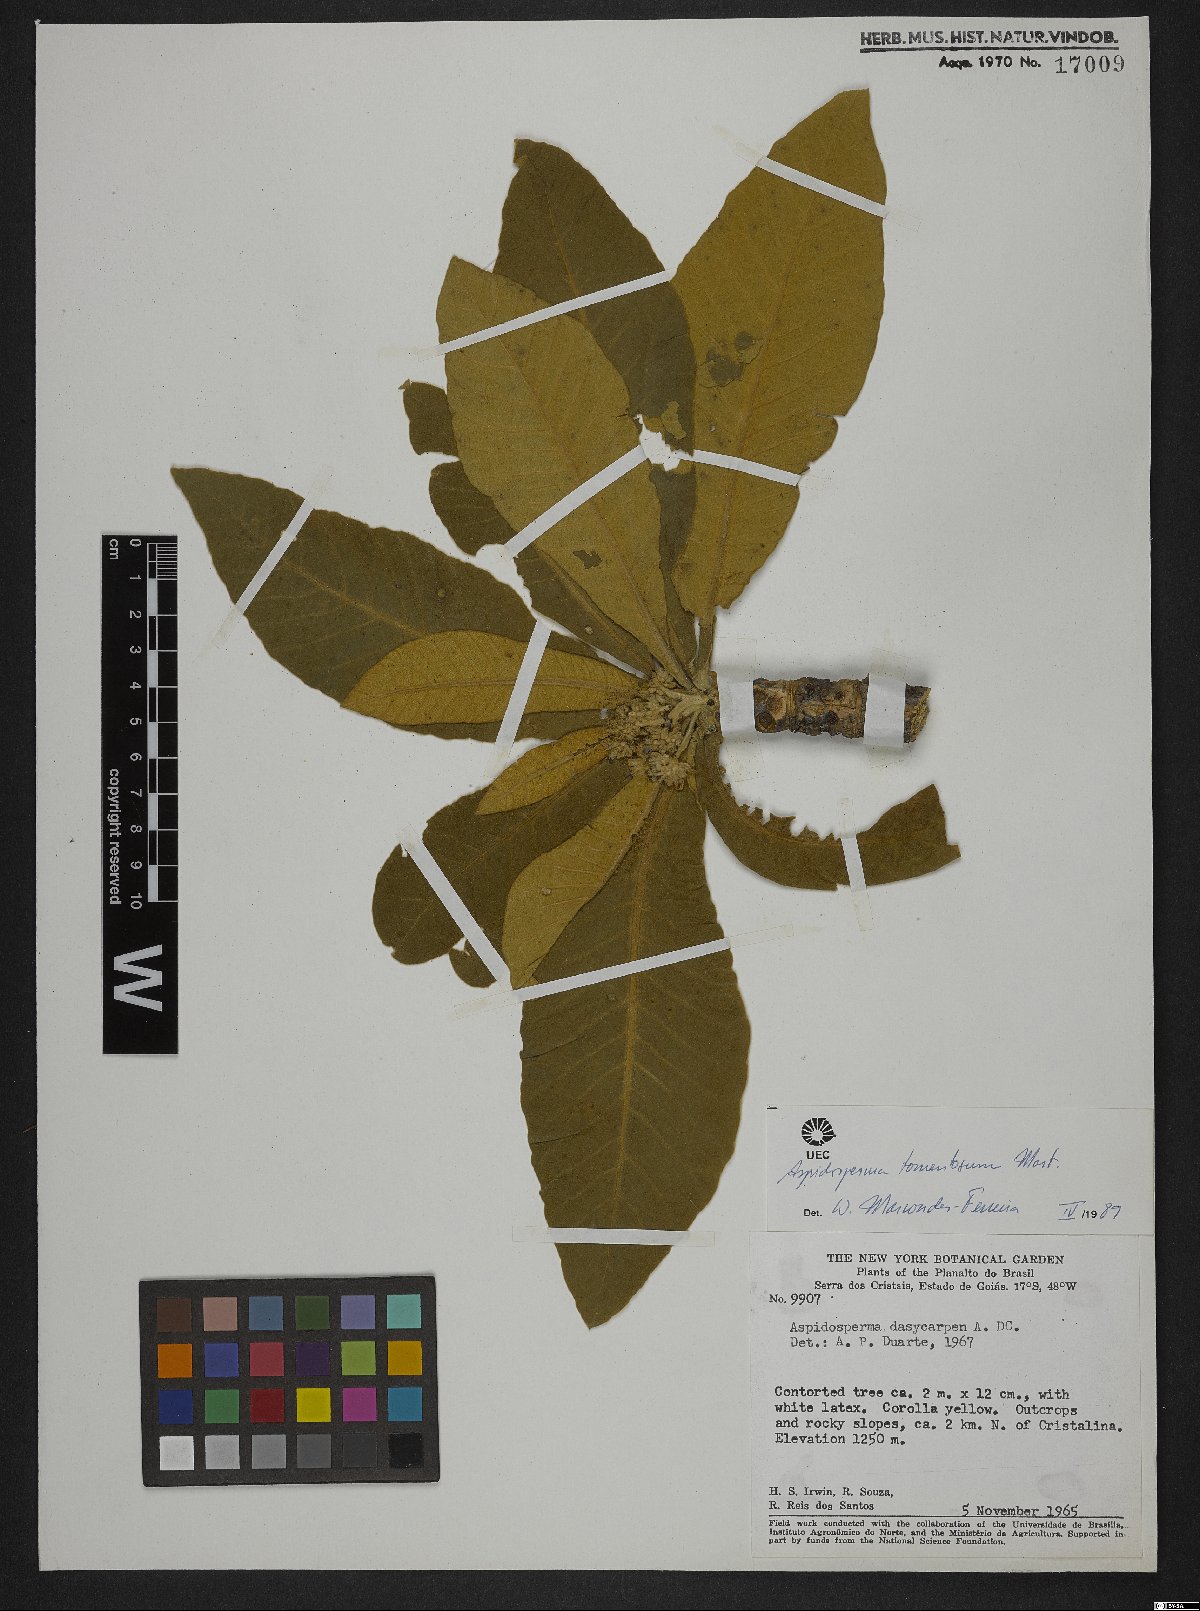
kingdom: Plantae
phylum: Tracheophyta
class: Magnoliopsida
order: Gentianales
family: Apocynaceae
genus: Aspidosperma
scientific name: Aspidosperma tomentosum
